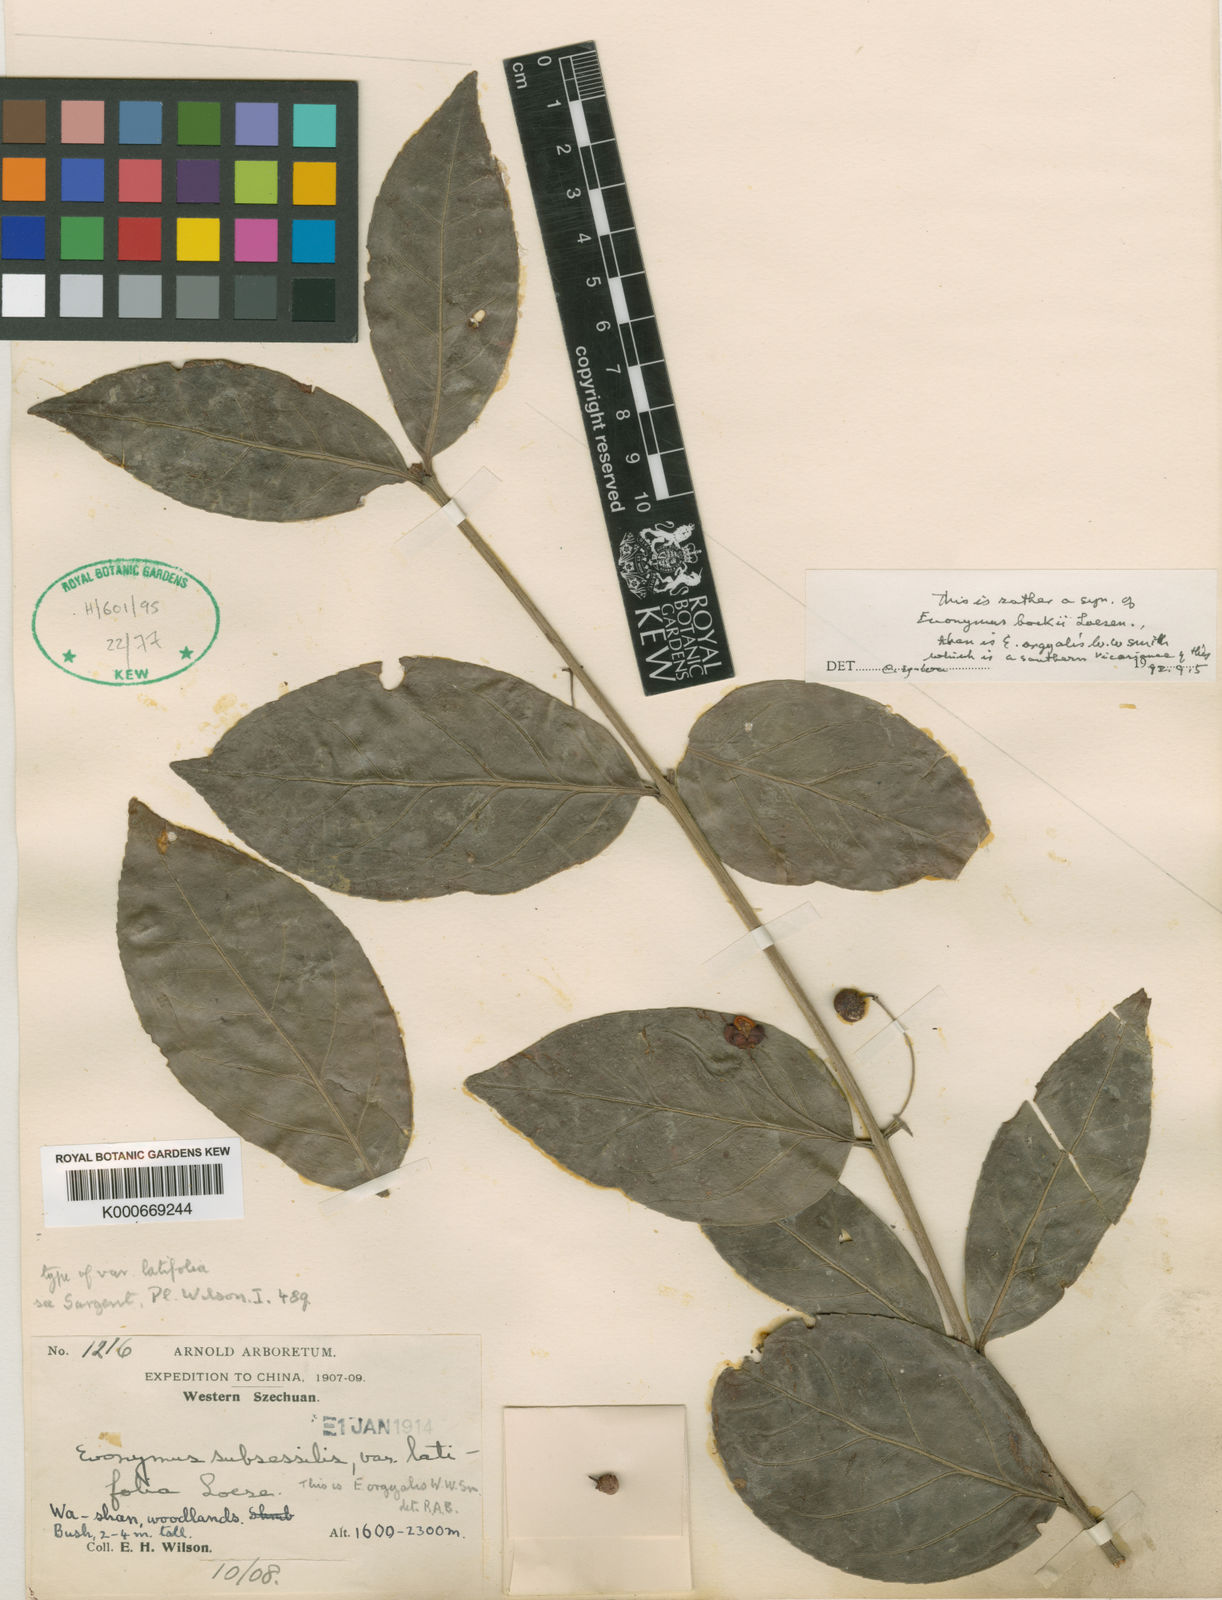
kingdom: Plantae
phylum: Tracheophyta
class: Magnoliopsida
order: Celastrales
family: Celastraceae
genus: Euonymus
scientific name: Euonymus bockii
